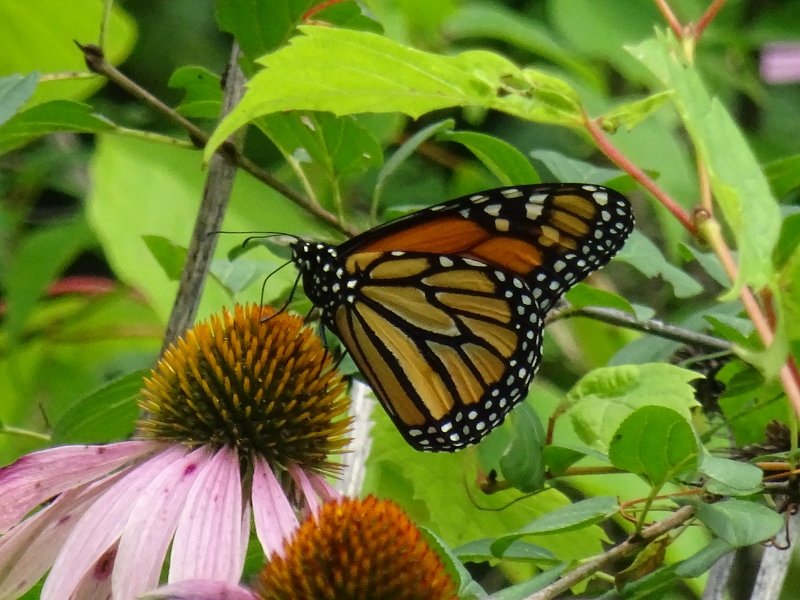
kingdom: Animalia
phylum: Arthropoda
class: Insecta
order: Lepidoptera
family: Nymphalidae
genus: Danaus
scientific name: Danaus plexippus
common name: Monarch
